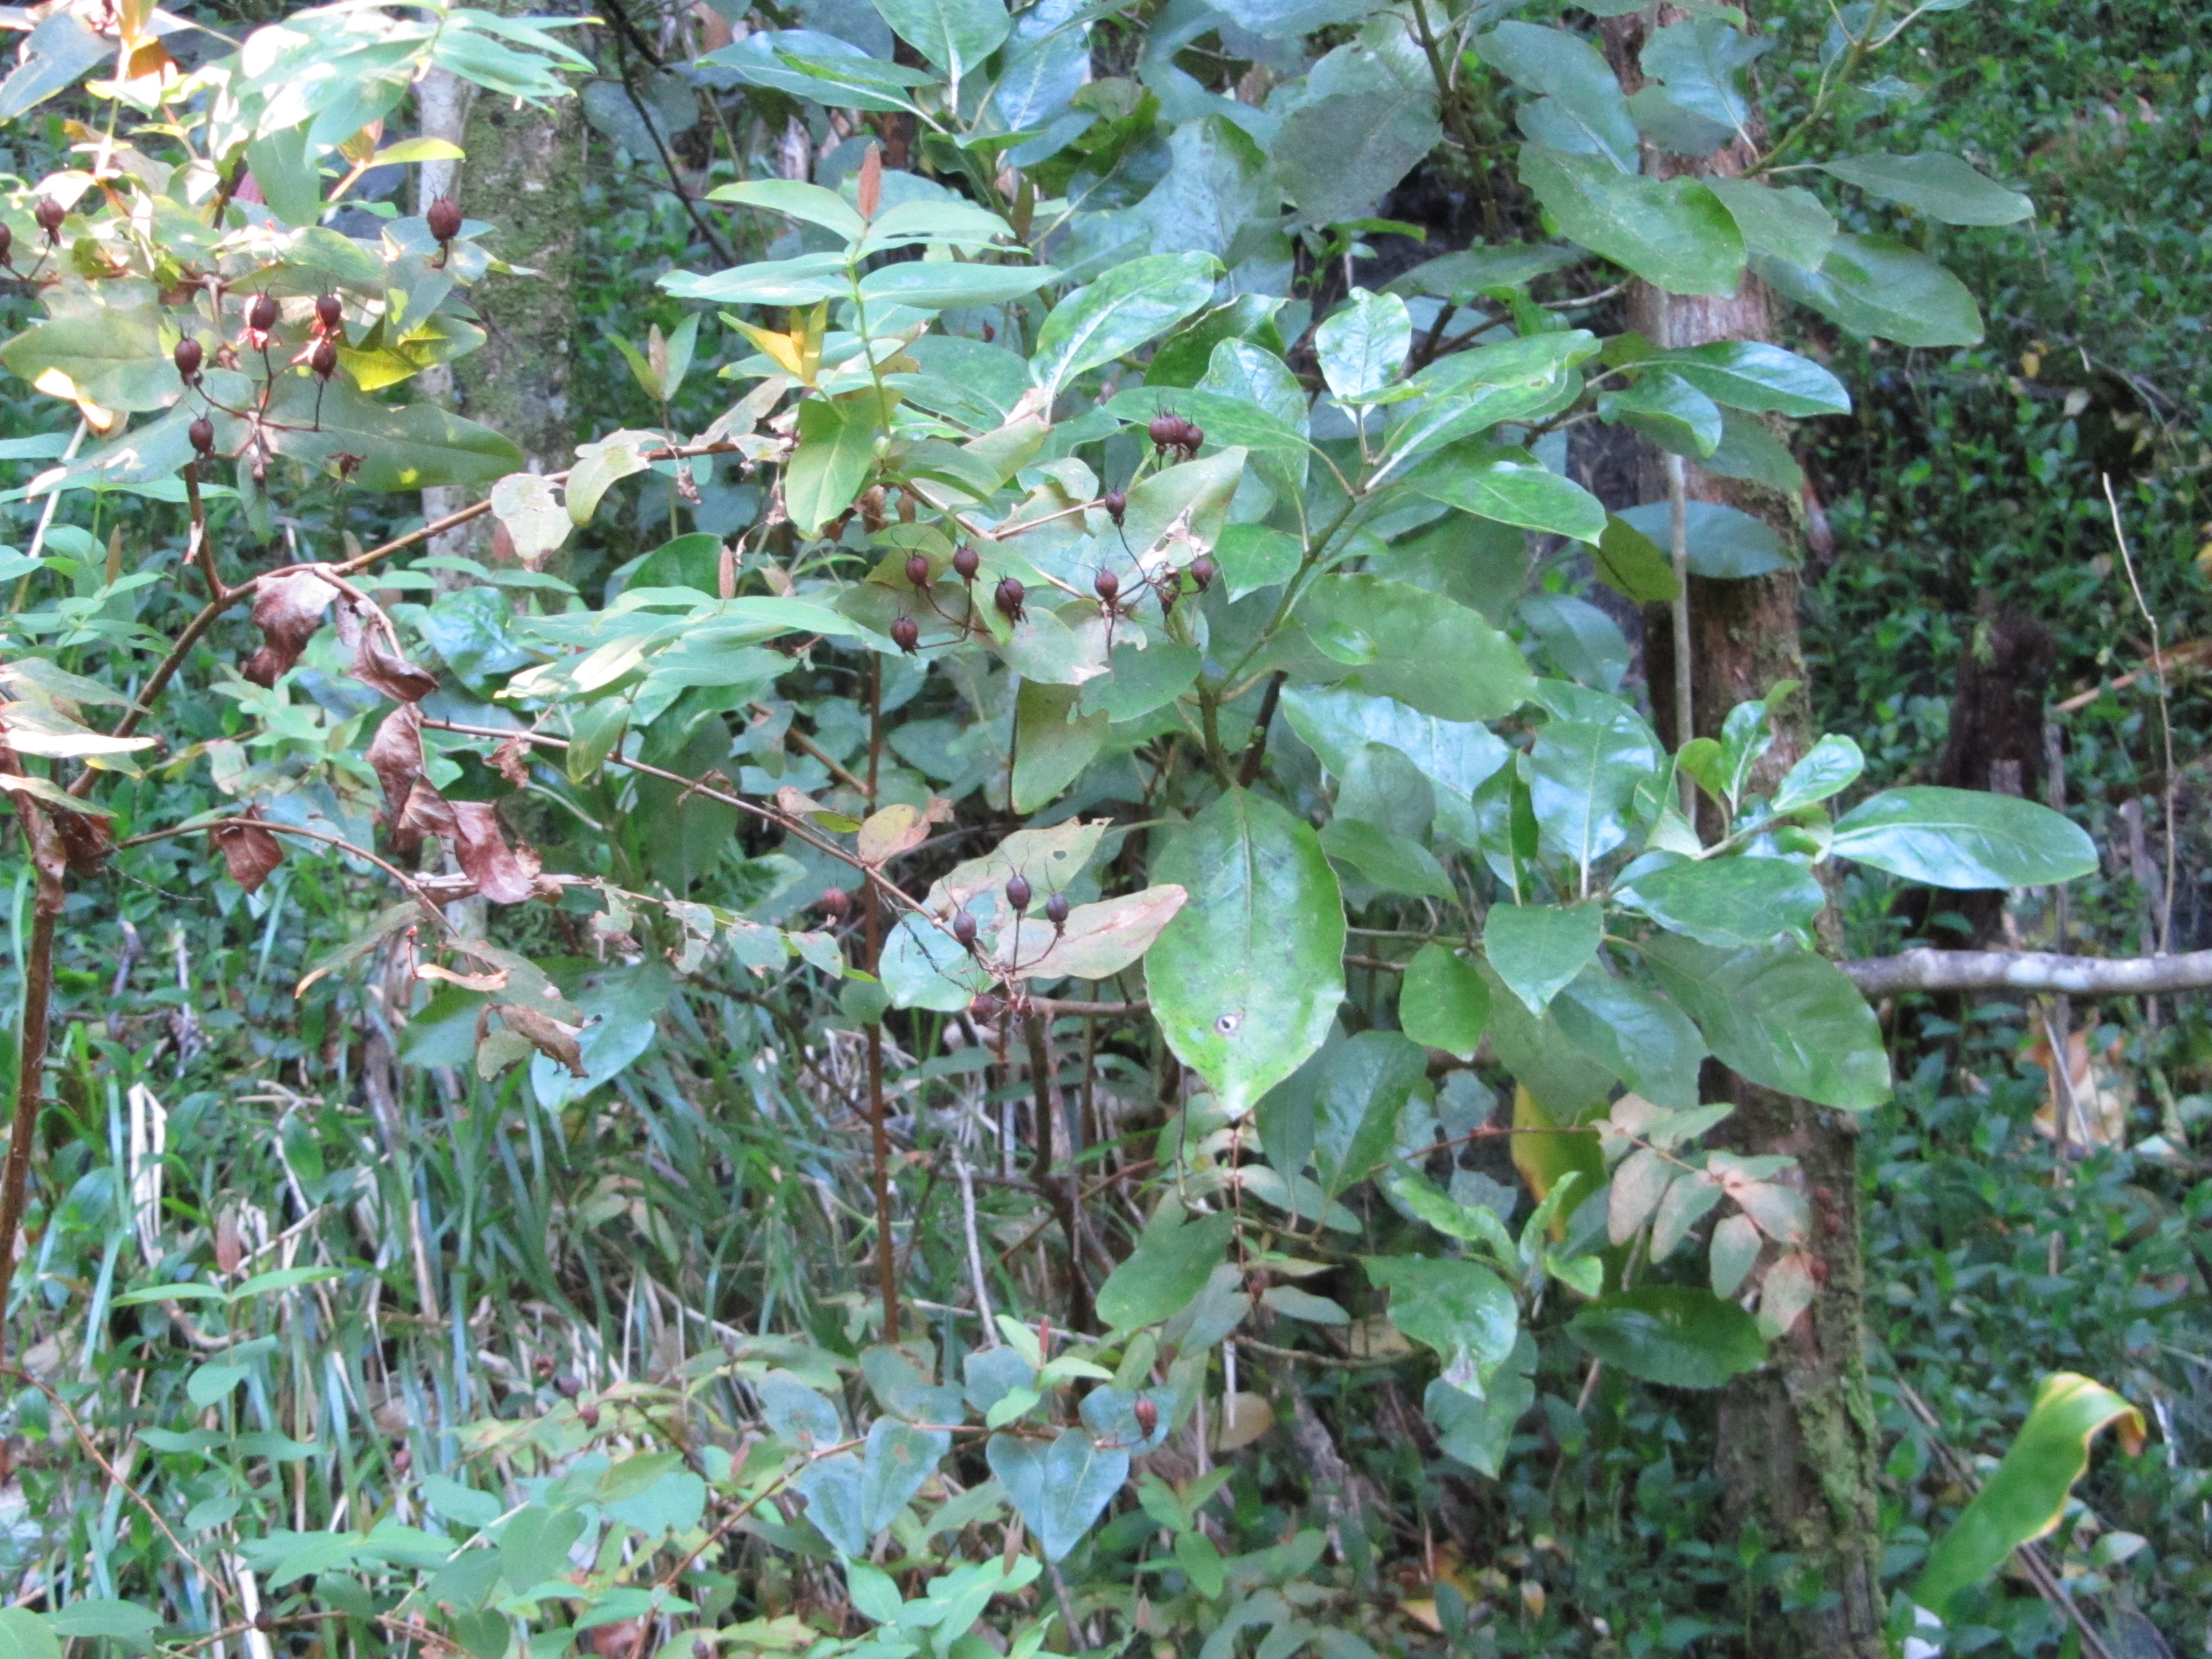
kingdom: Plantae
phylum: Tracheophyta
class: Magnoliopsida
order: Malpighiales
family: Hypericaceae
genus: Hypericum
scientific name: Hypericum androsaemum
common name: Sweet-amber
